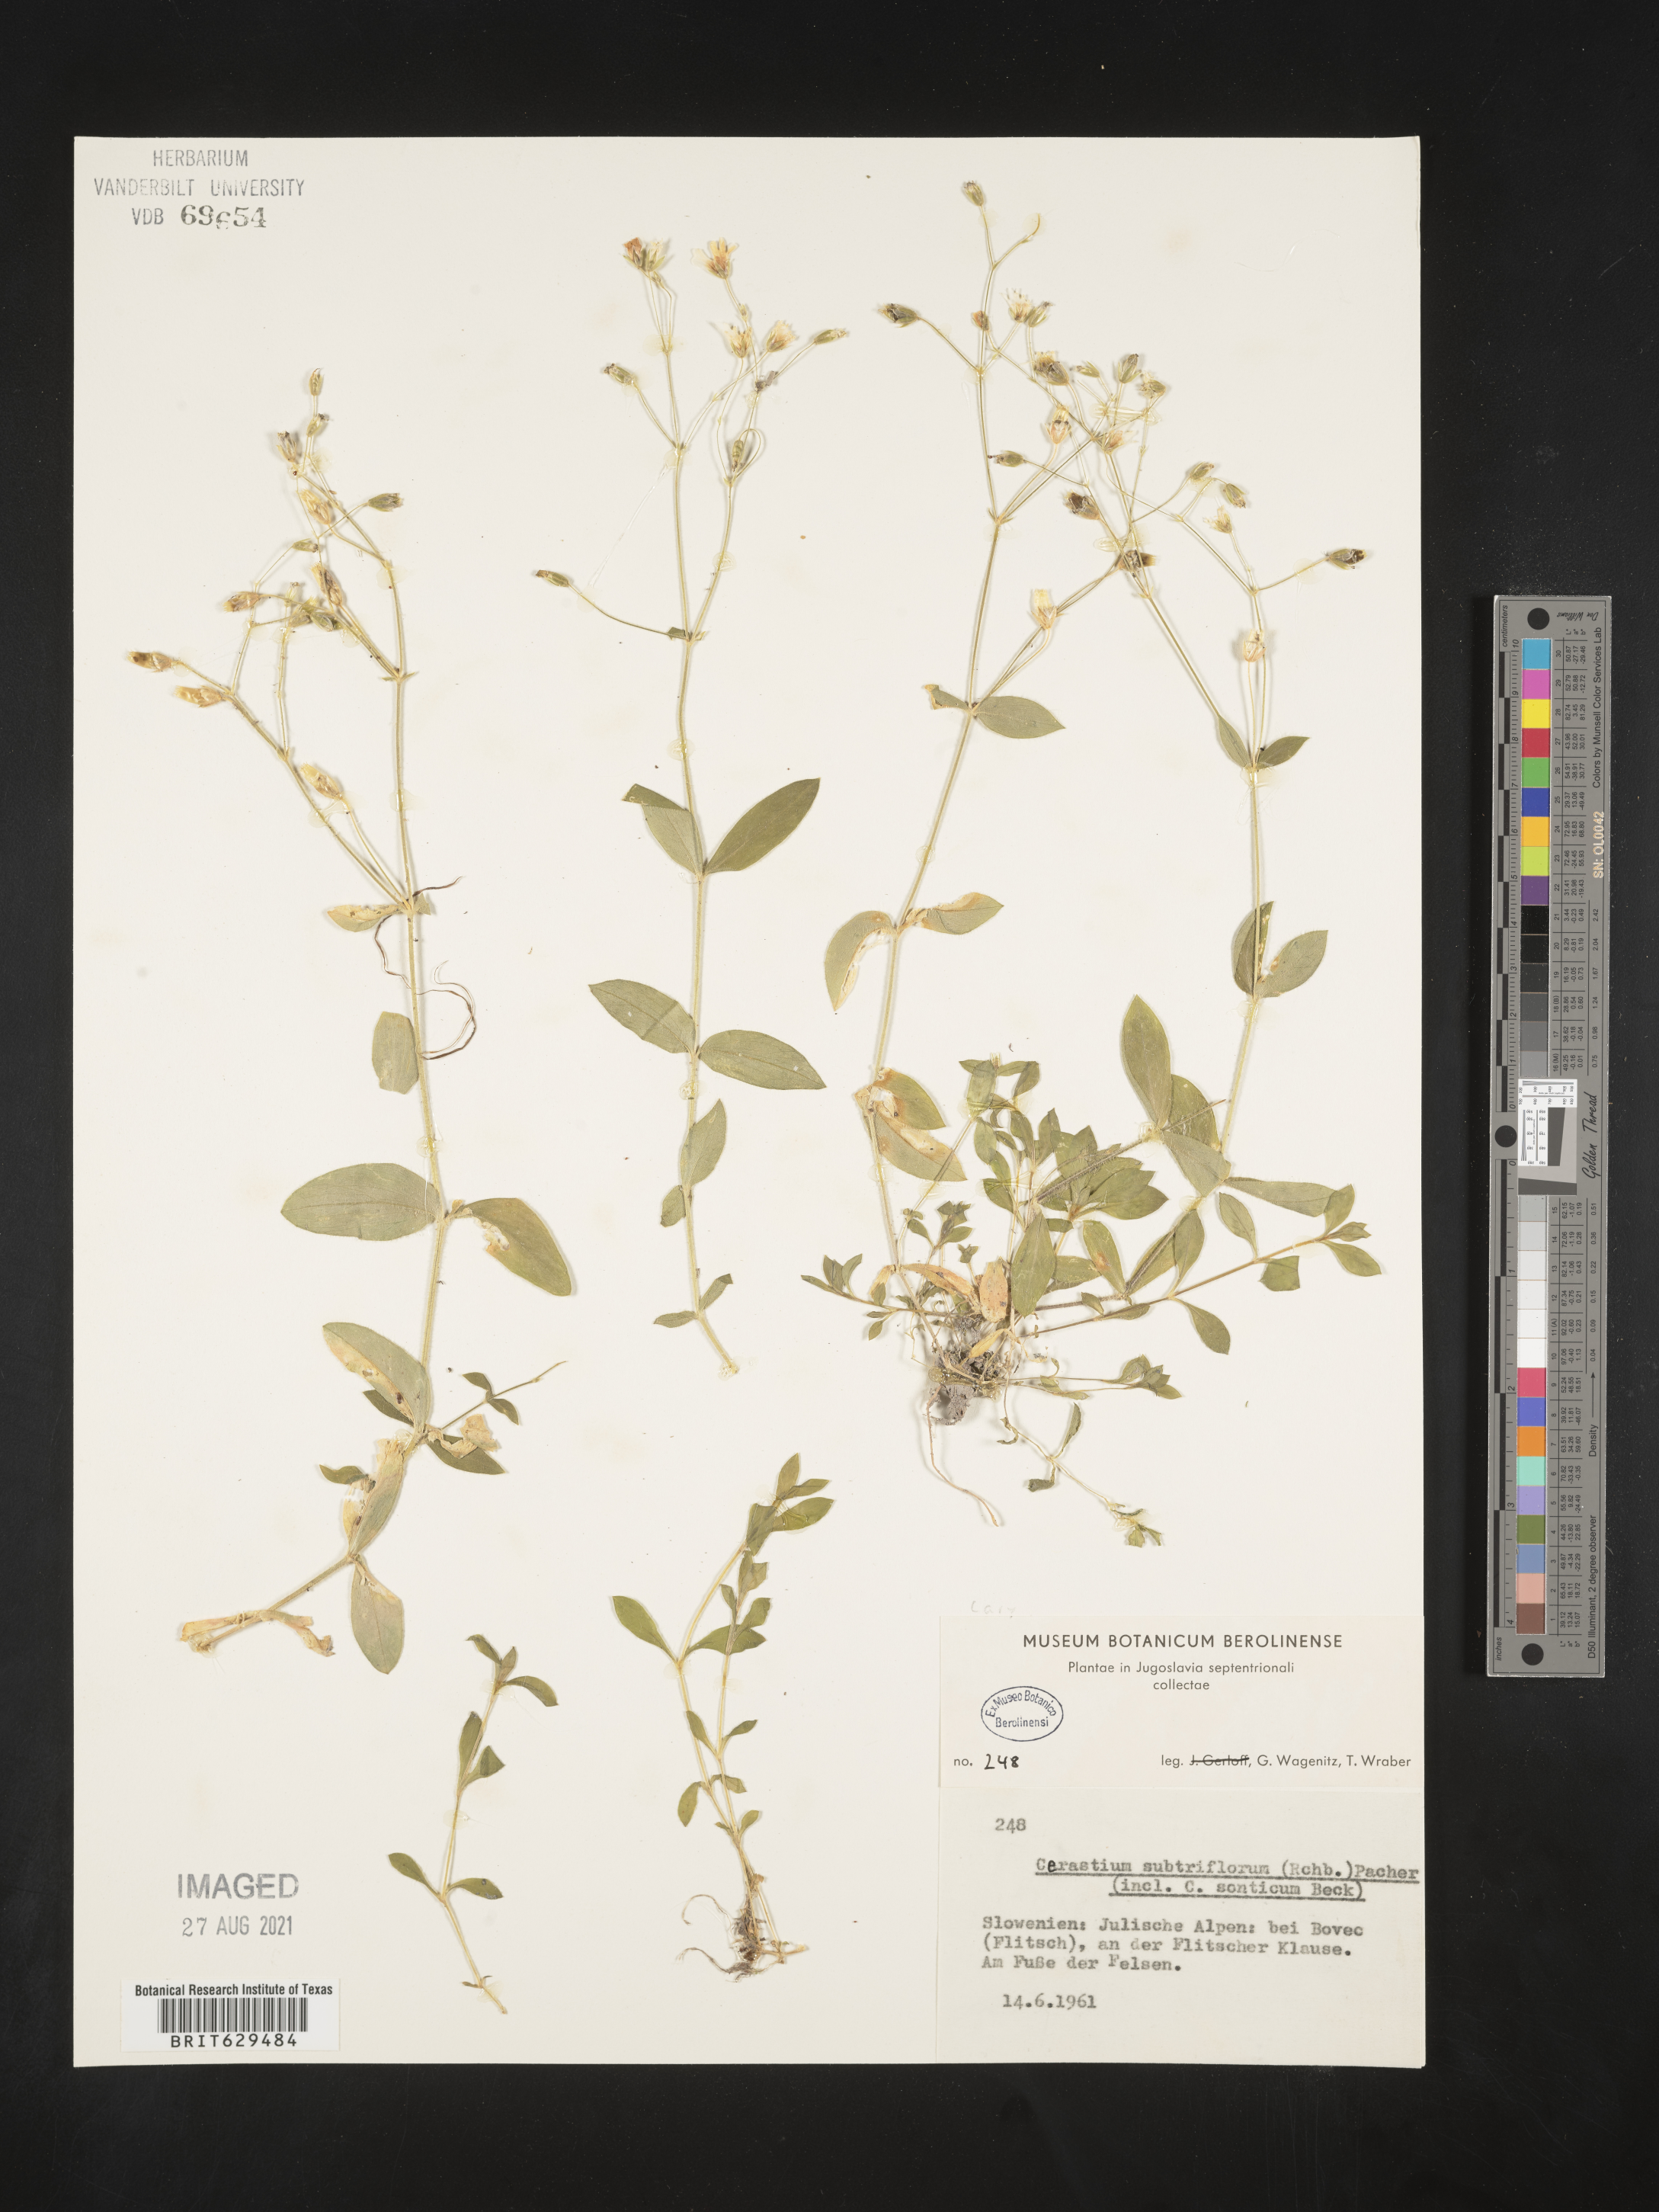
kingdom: Plantae
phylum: Tracheophyta
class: Magnoliopsida
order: Caryophyllales
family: Caryophyllaceae
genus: Cerastium
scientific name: Cerastium subtriflorum
